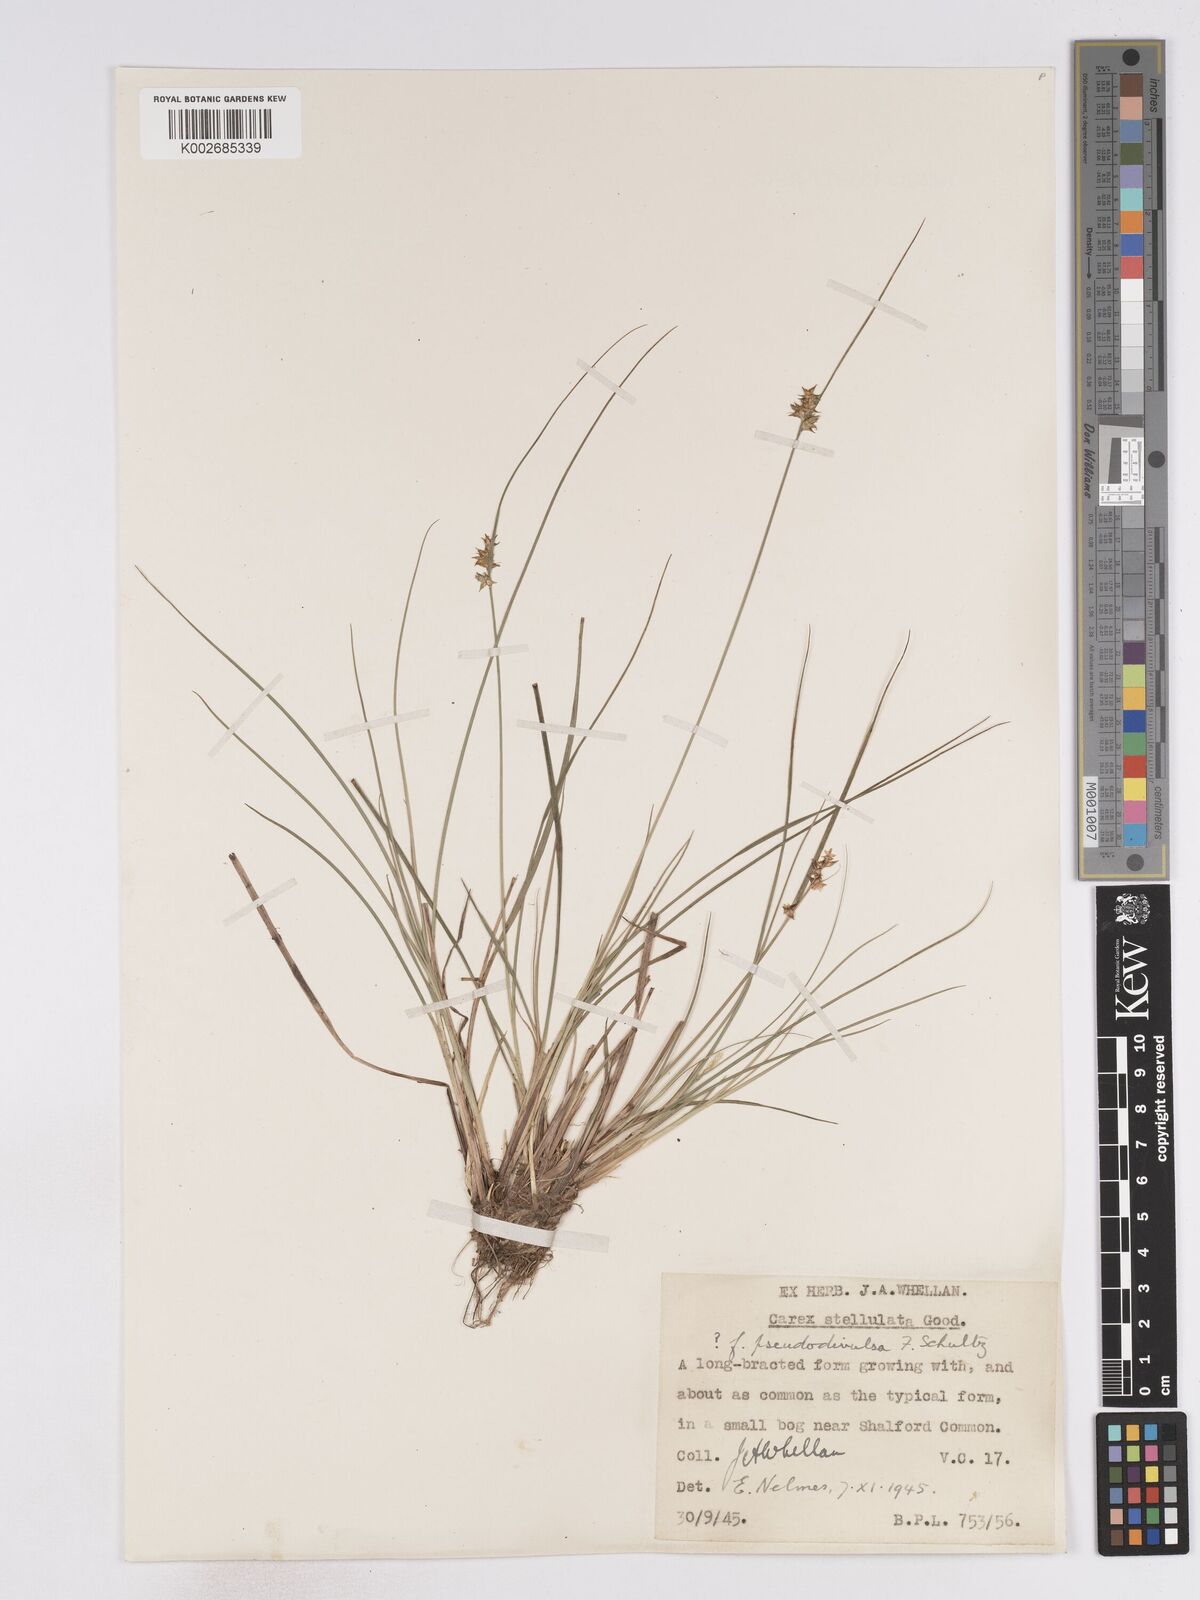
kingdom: Plantae
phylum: Tracheophyta
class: Liliopsida
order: Poales
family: Cyperaceae
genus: Carex
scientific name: Carex echinata
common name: Star sedge
